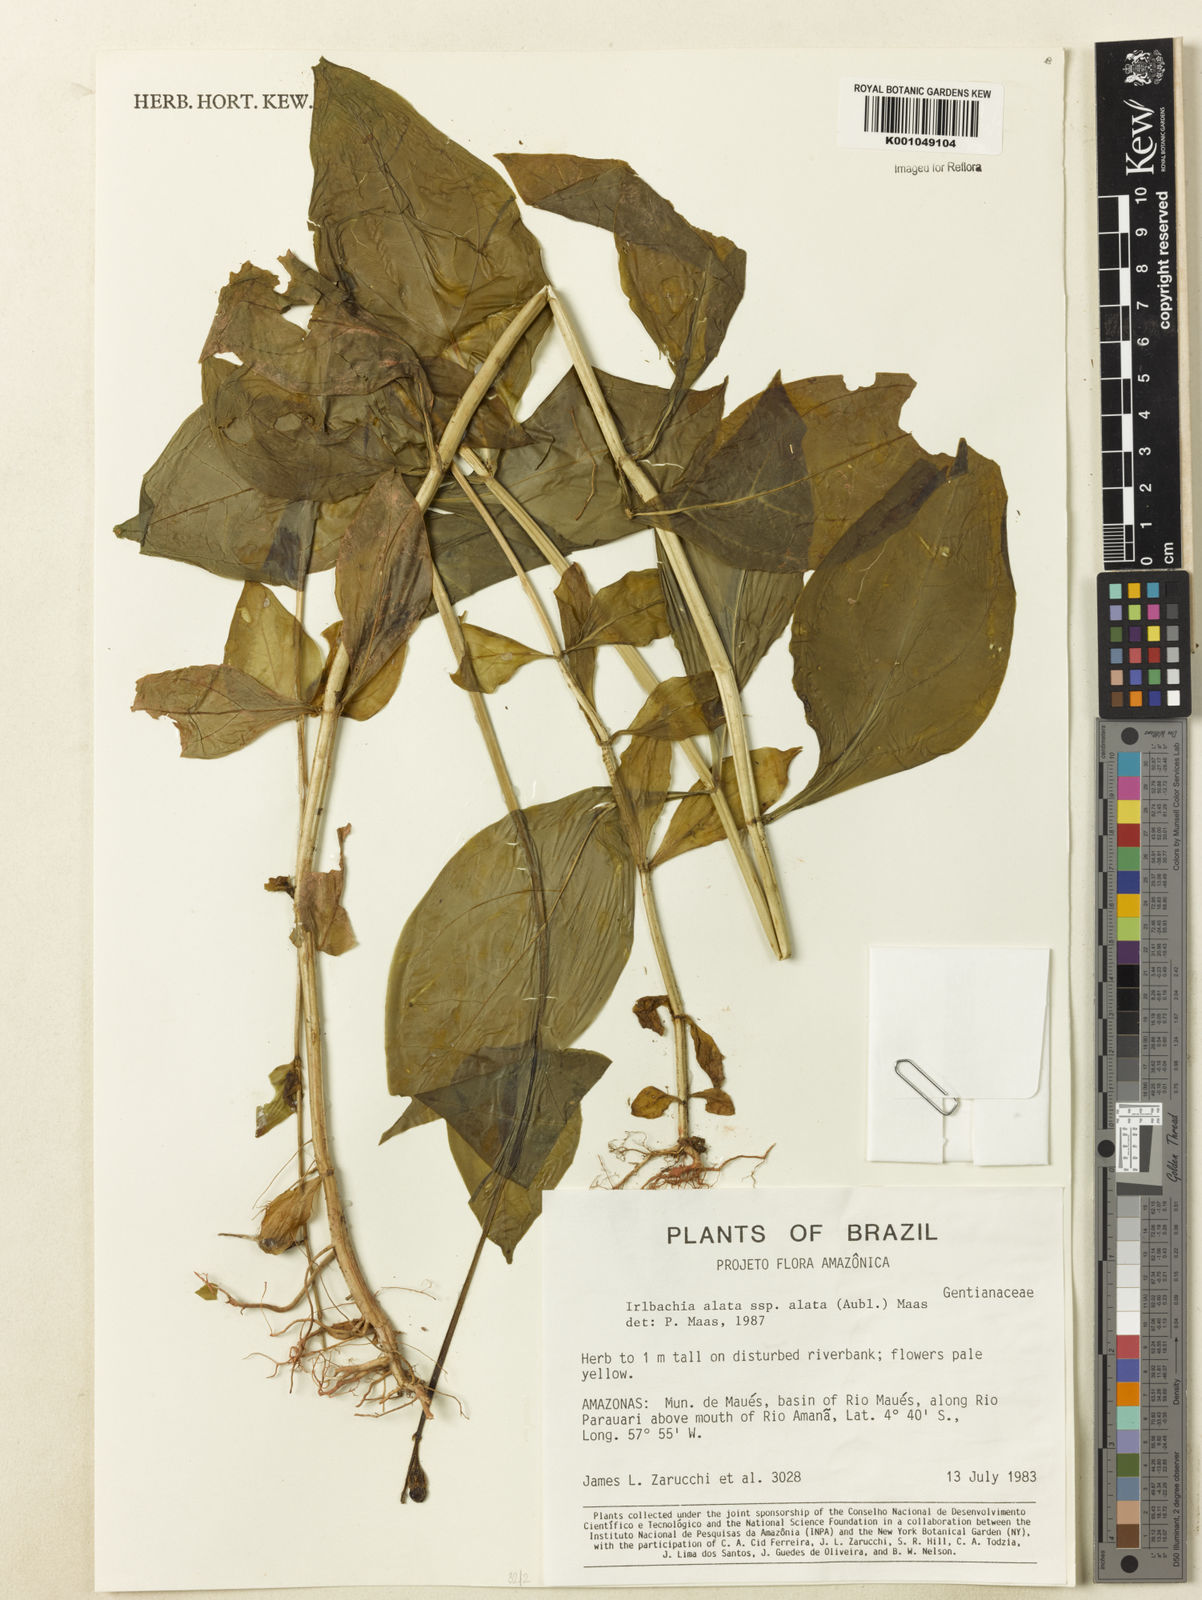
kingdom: Plantae
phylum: Tracheophyta
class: Magnoliopsida
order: Gentianales
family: Gentianaceae
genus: Chelonanthus
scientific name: Chelonanthus alatus
